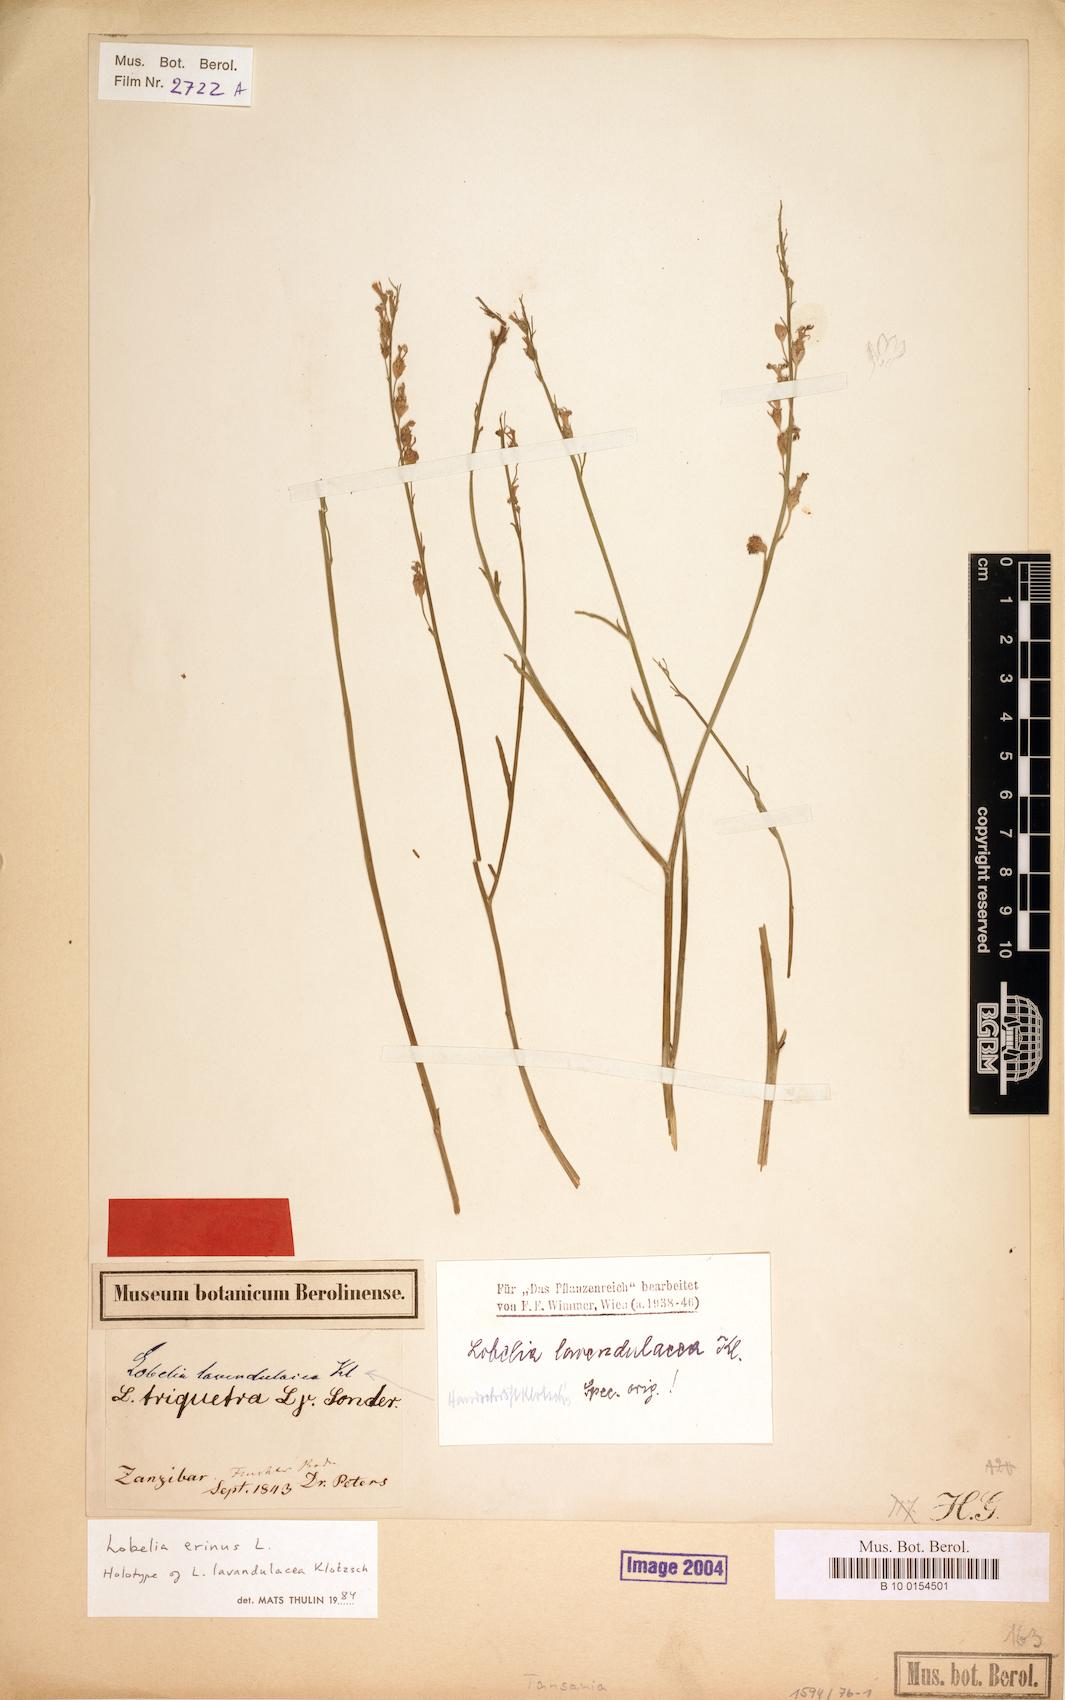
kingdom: Plantae
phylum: Tracheophyta
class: Magnoliopsida
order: Asterales
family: Campanulaceae
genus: Lobelia
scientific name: Lobelia erinus
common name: Edging lobelia
